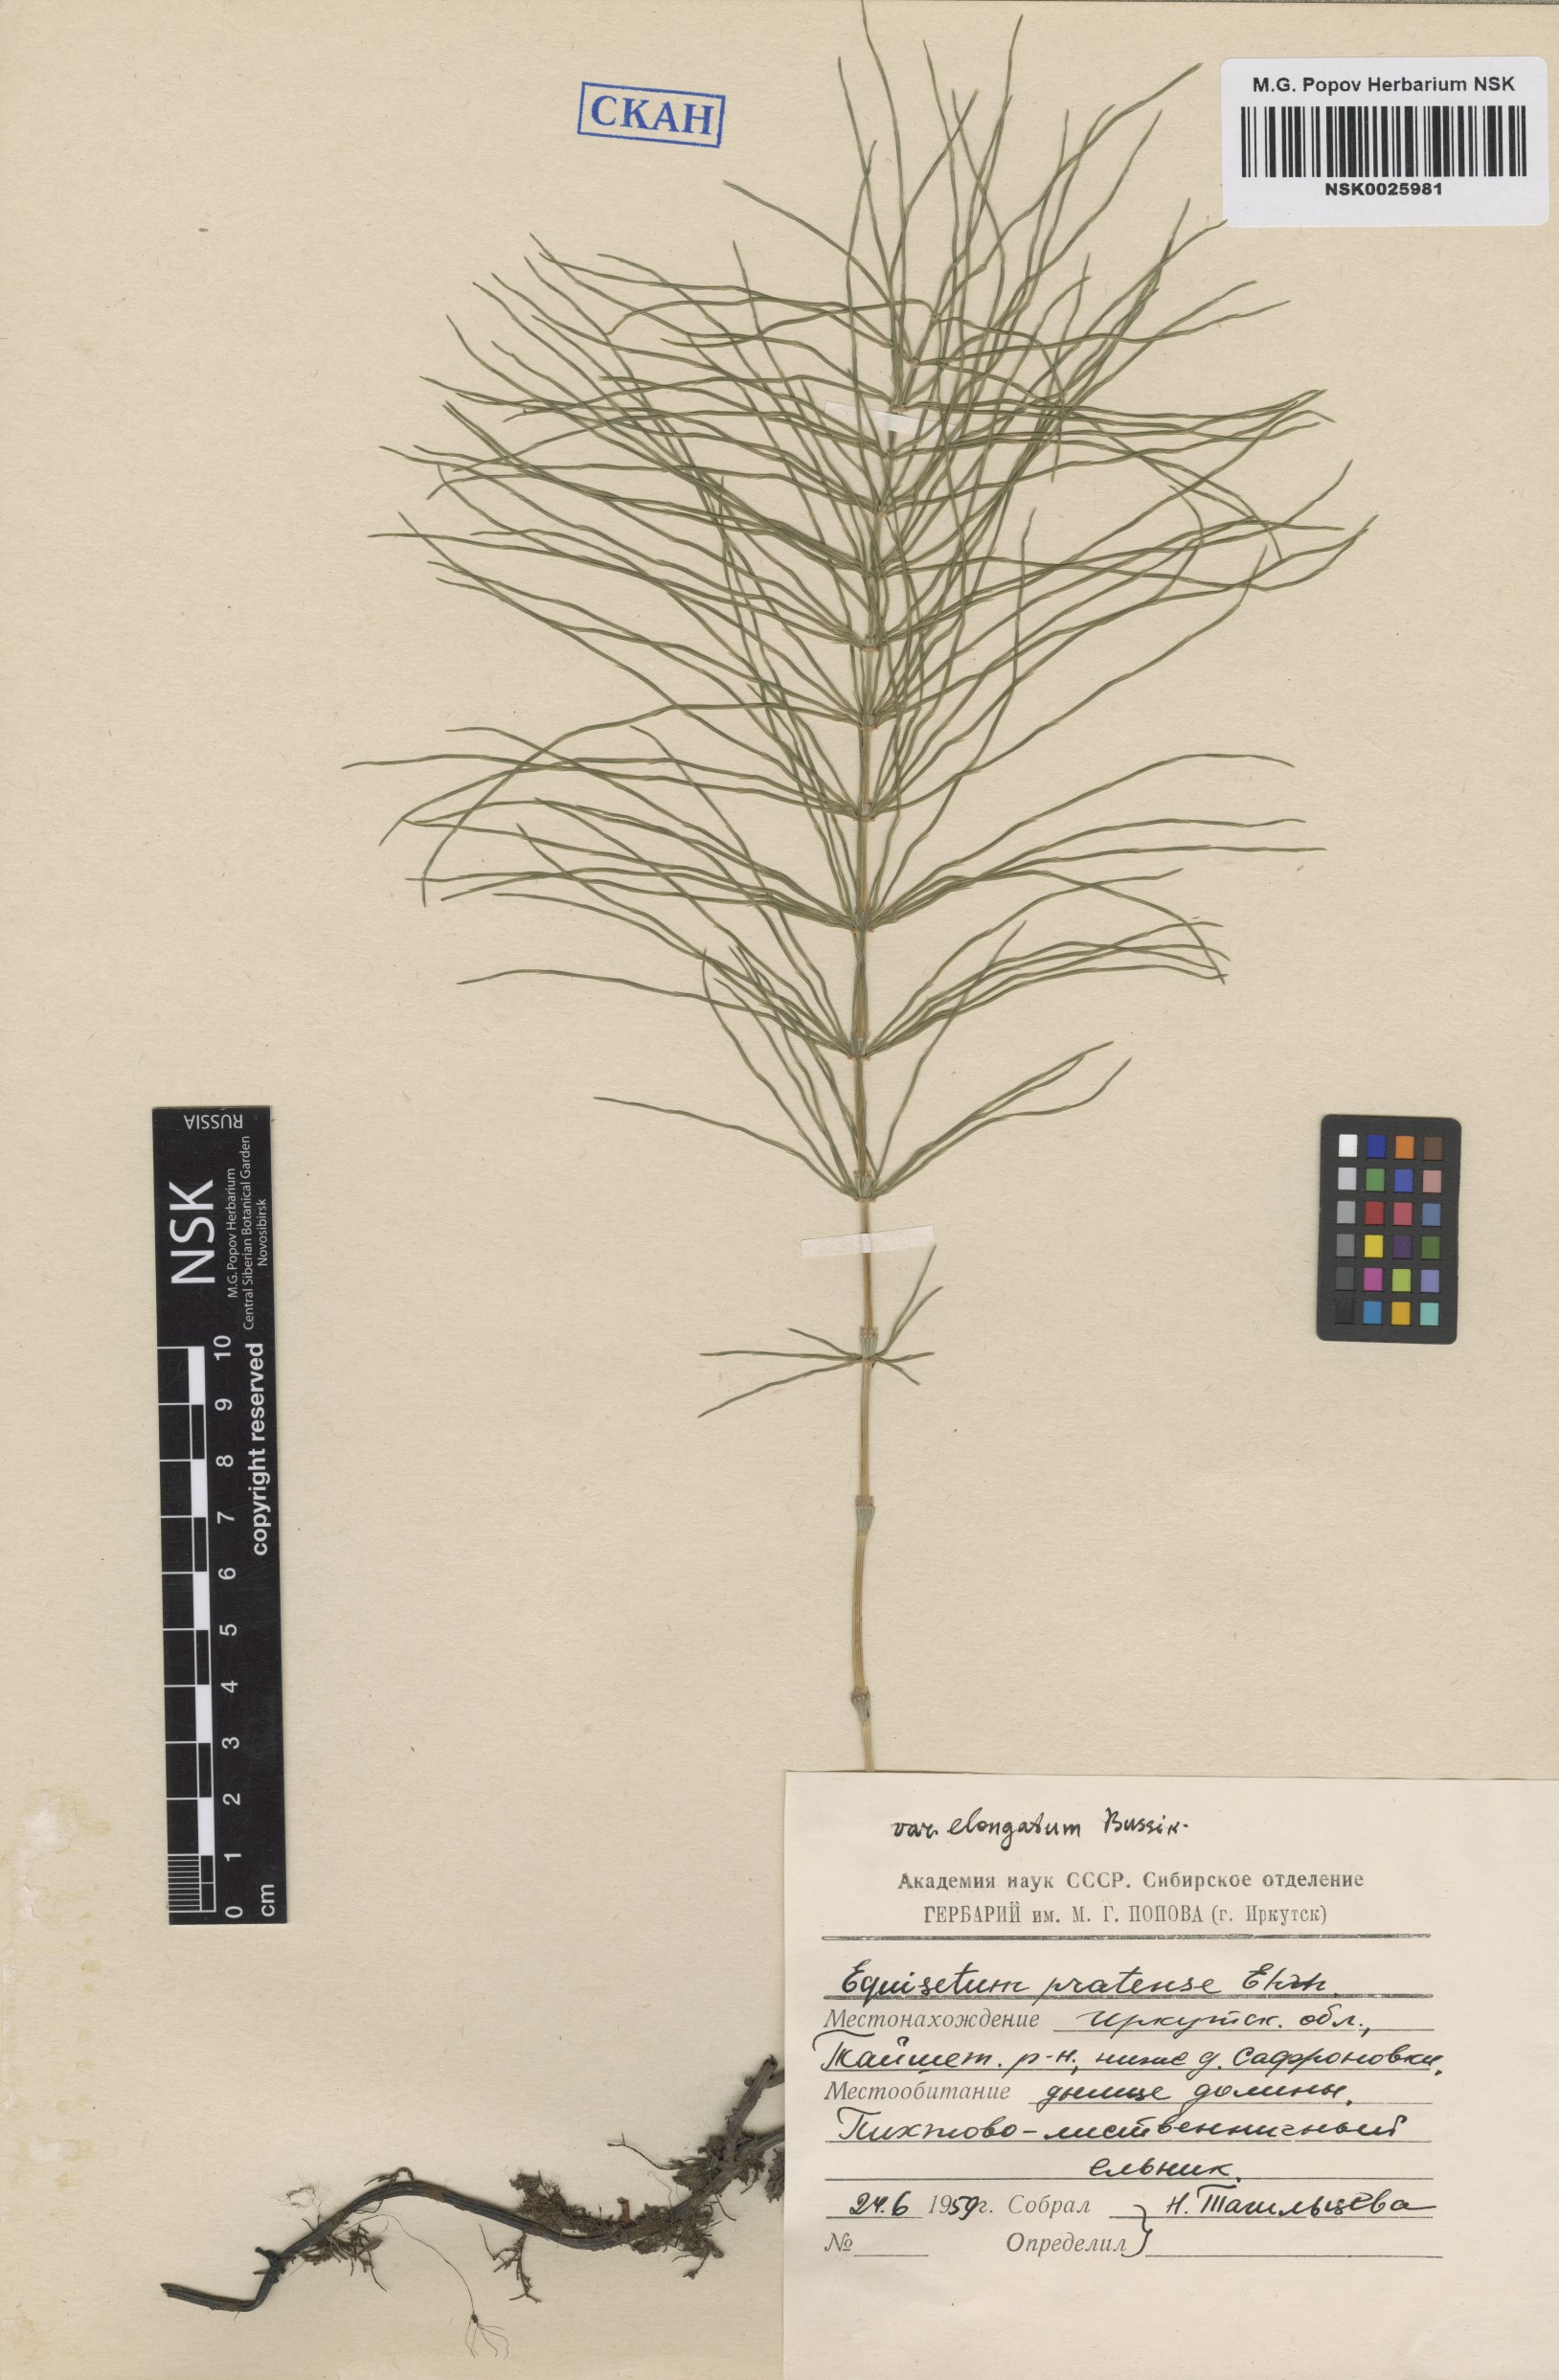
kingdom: Plantae
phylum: Tracheophyta
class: Polypodiopsida
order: Equisetales
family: Equisetaceae
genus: Equisetum
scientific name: Equisetum pratense
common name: Meadow horsetail
